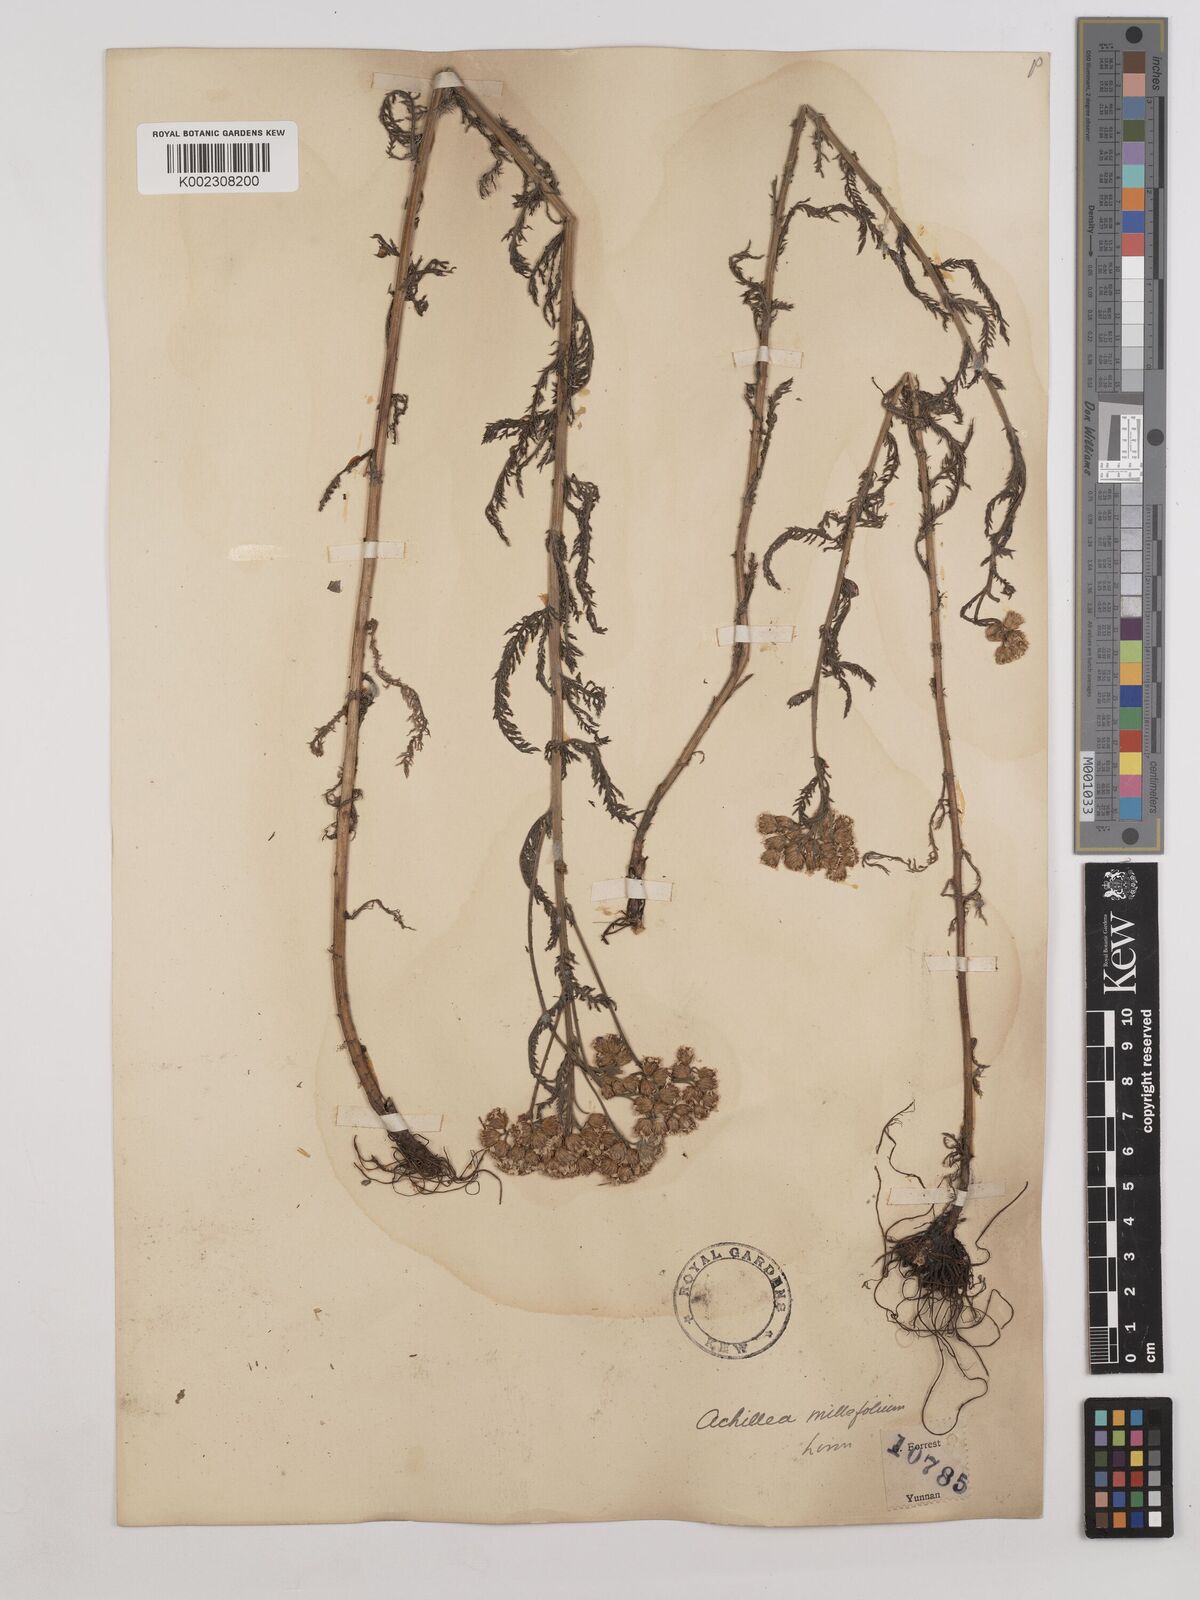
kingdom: Plantae
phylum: Tracheophyta
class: Magnoliopsida
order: Asterales
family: Asteraceae
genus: Achillea
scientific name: Achillea alpina
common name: Siberian yarrow
